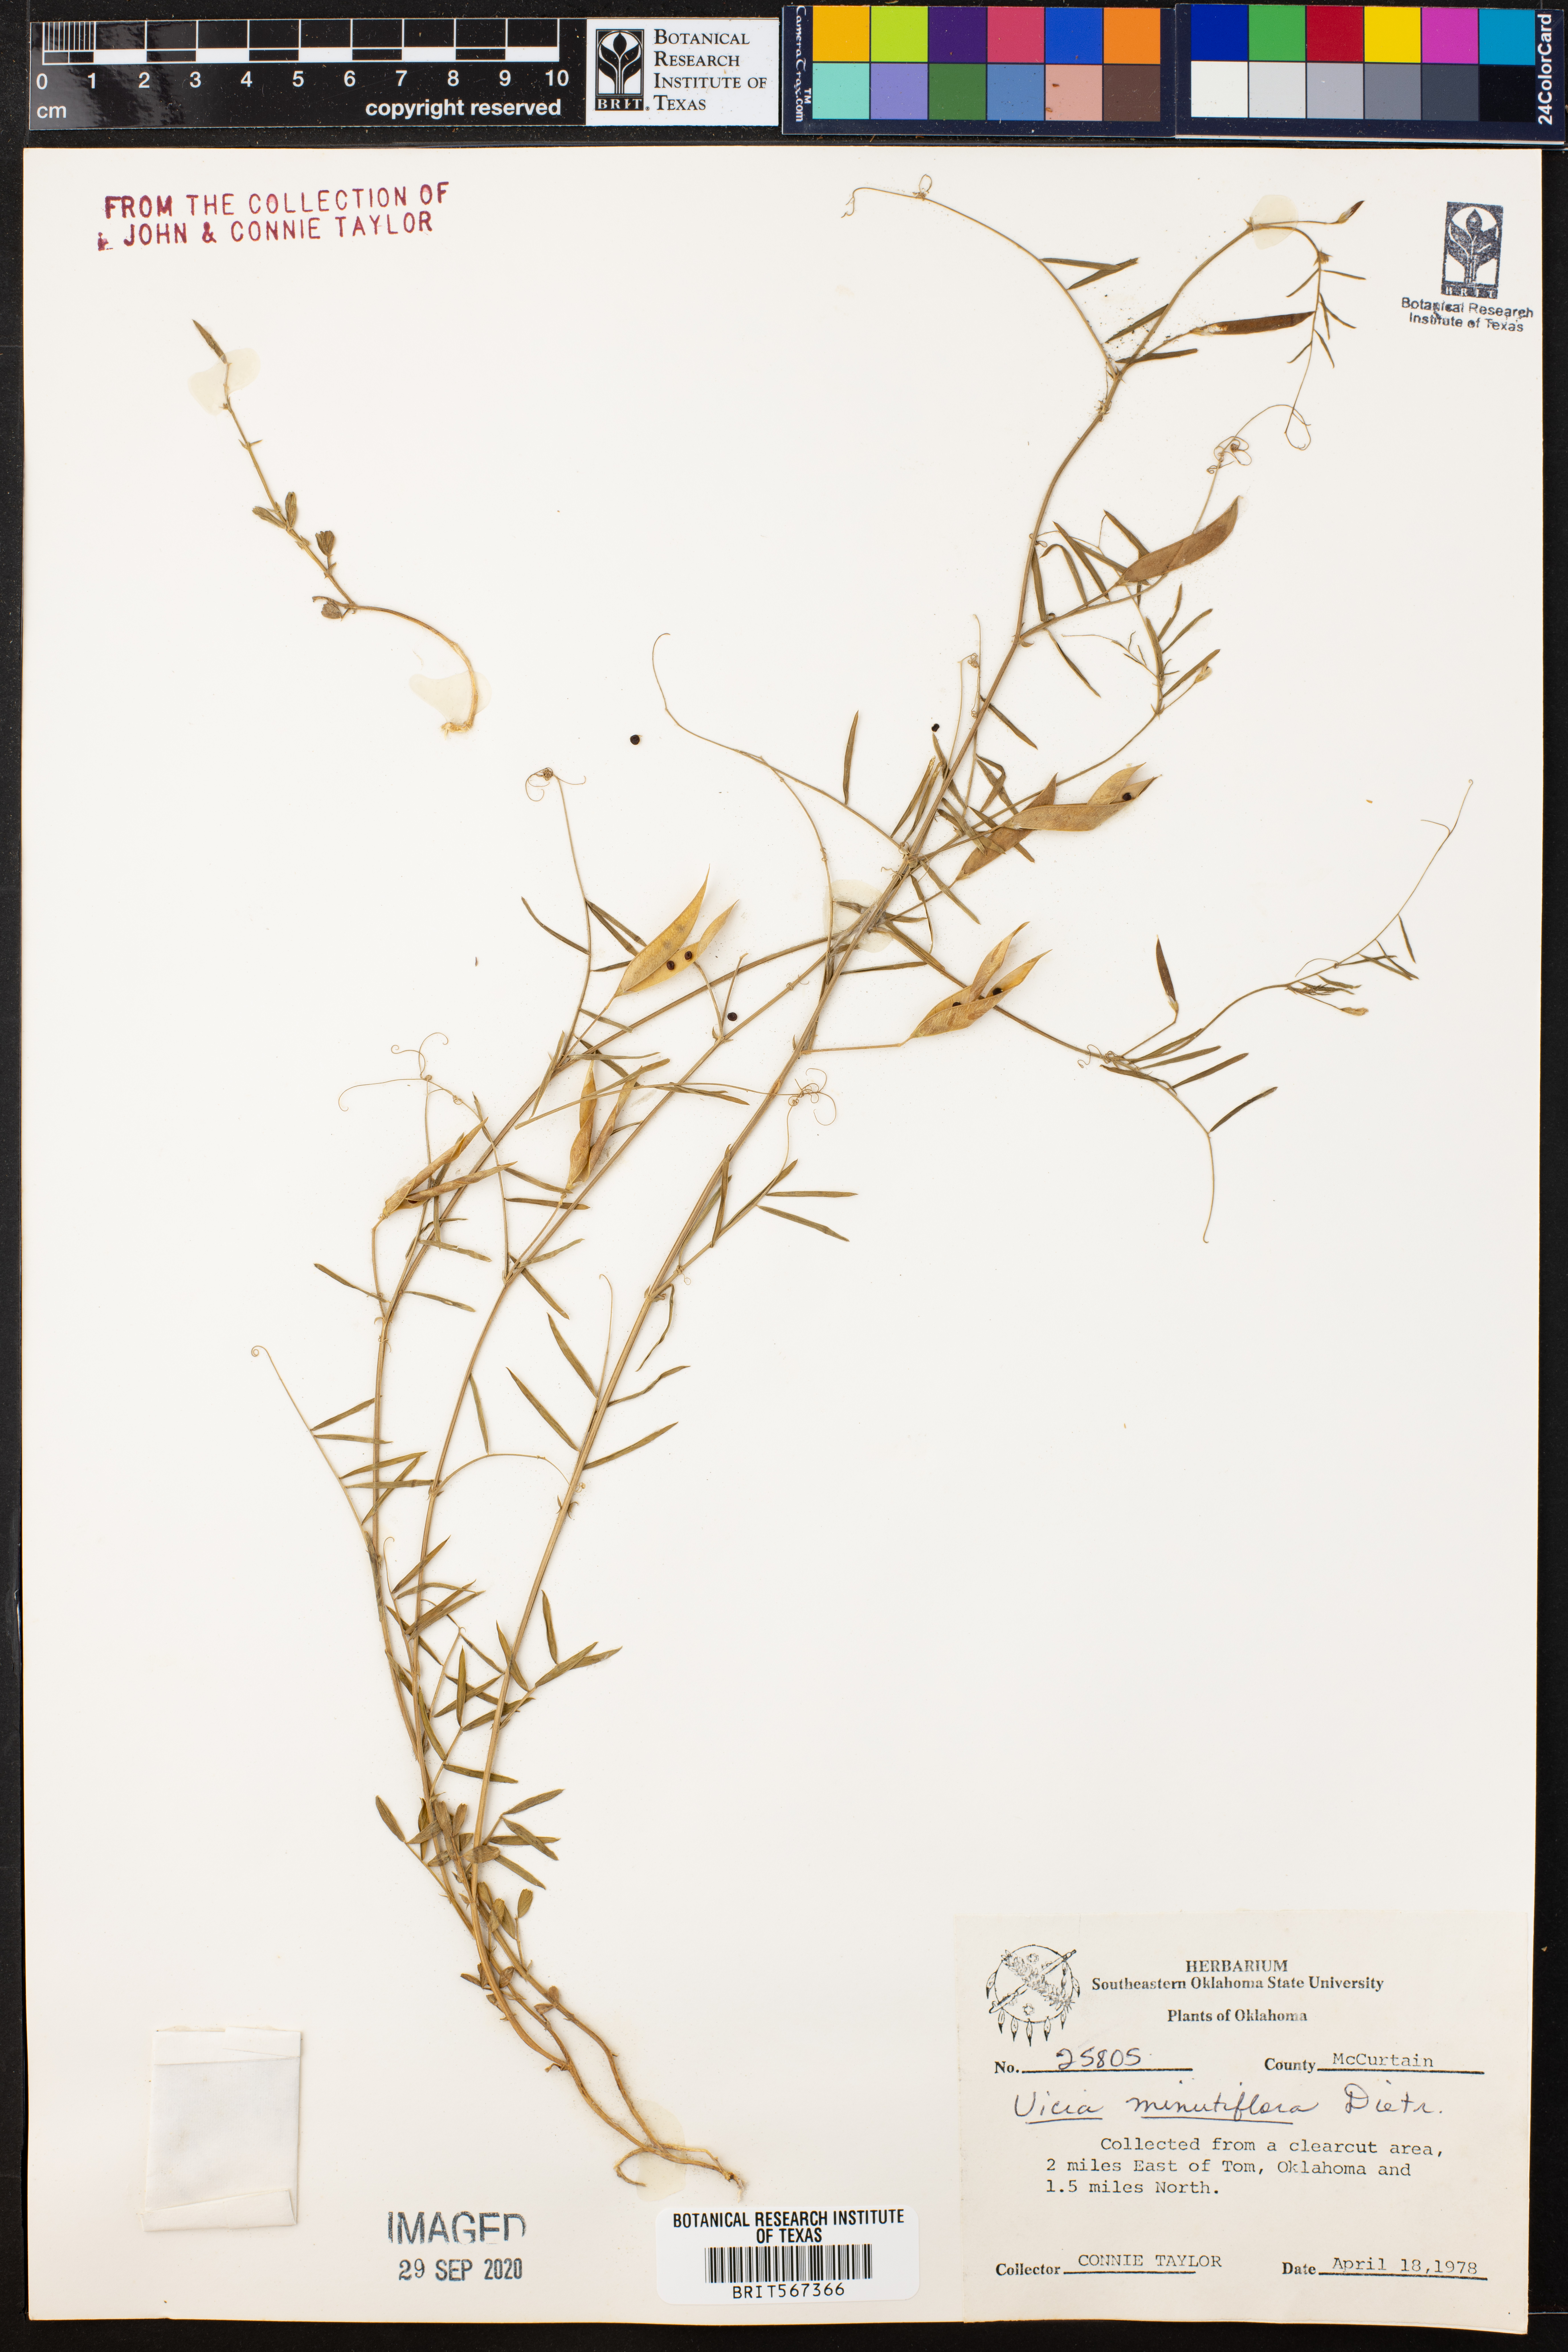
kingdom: Plantae
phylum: Tracheophyta
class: Magnoliopsida
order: Fabales
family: Fabaceae
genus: Vicia
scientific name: Vicia minutiflora
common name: Pygmy-flower vetch
